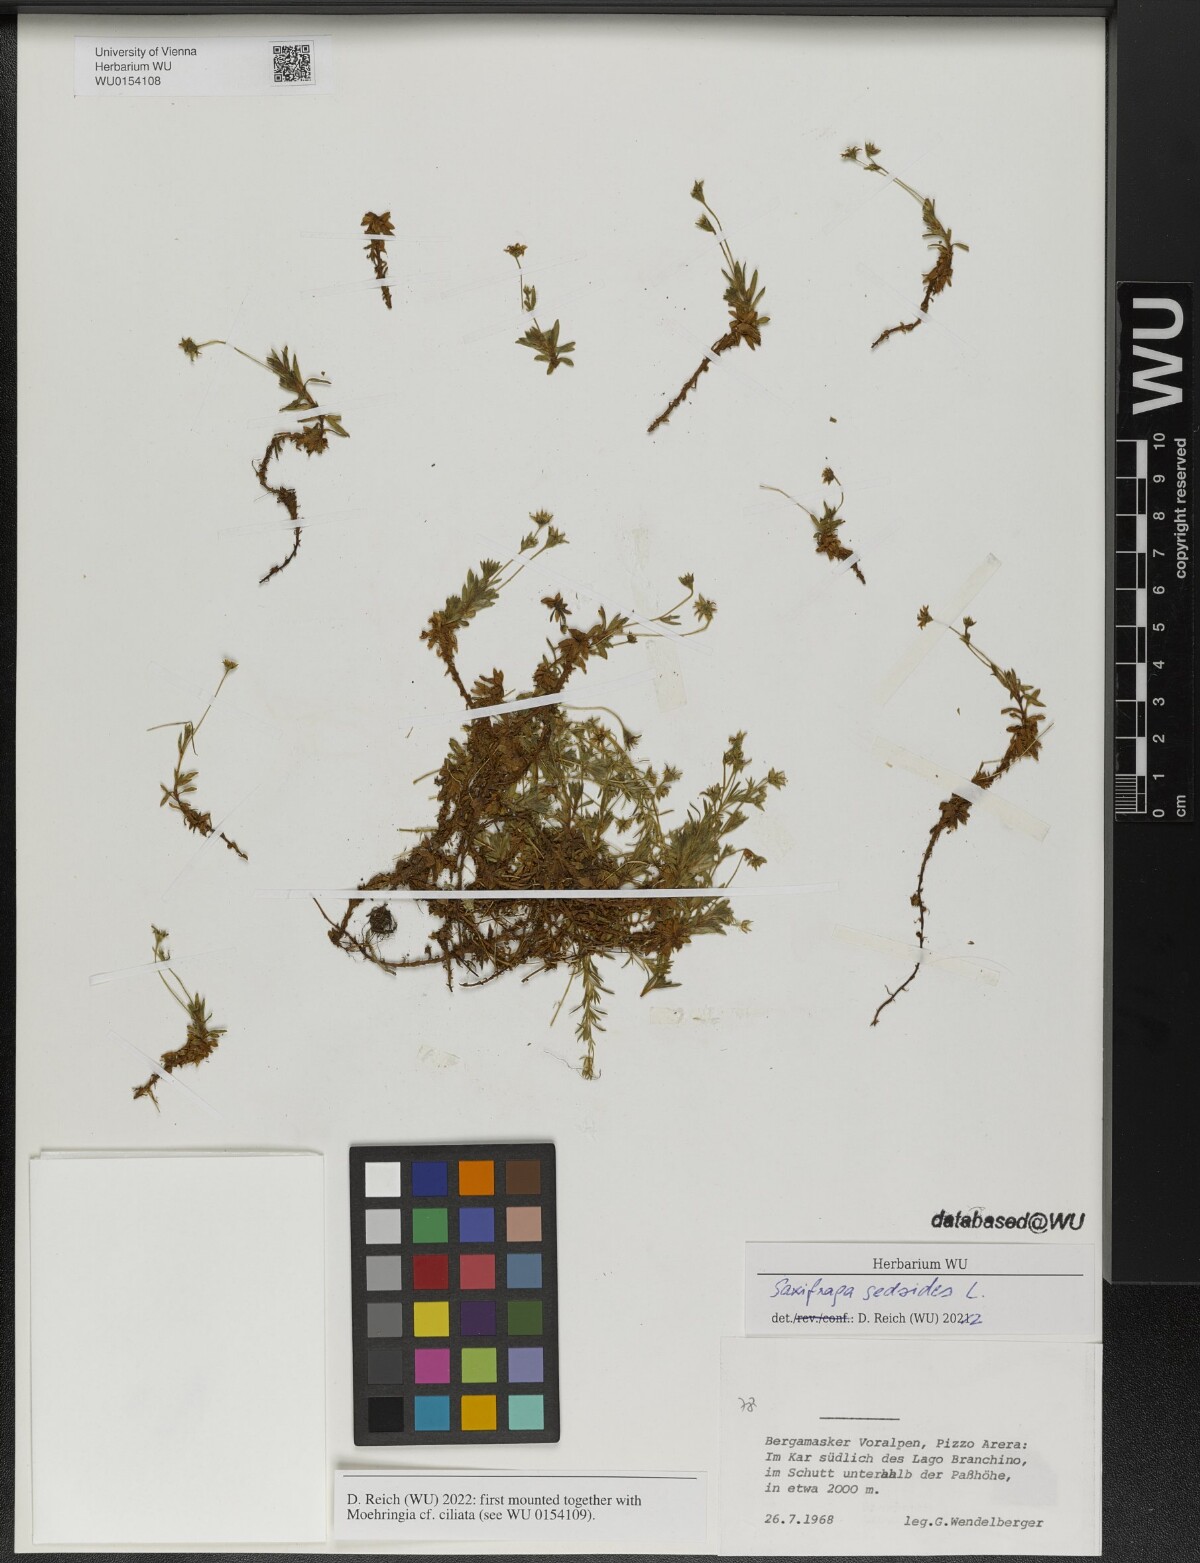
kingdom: Plantae
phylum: Tracheophyta
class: Magnoliopsida
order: Saxifragales
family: Saxifragaceae
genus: Saxifraga
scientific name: Saxifraga sedoides
